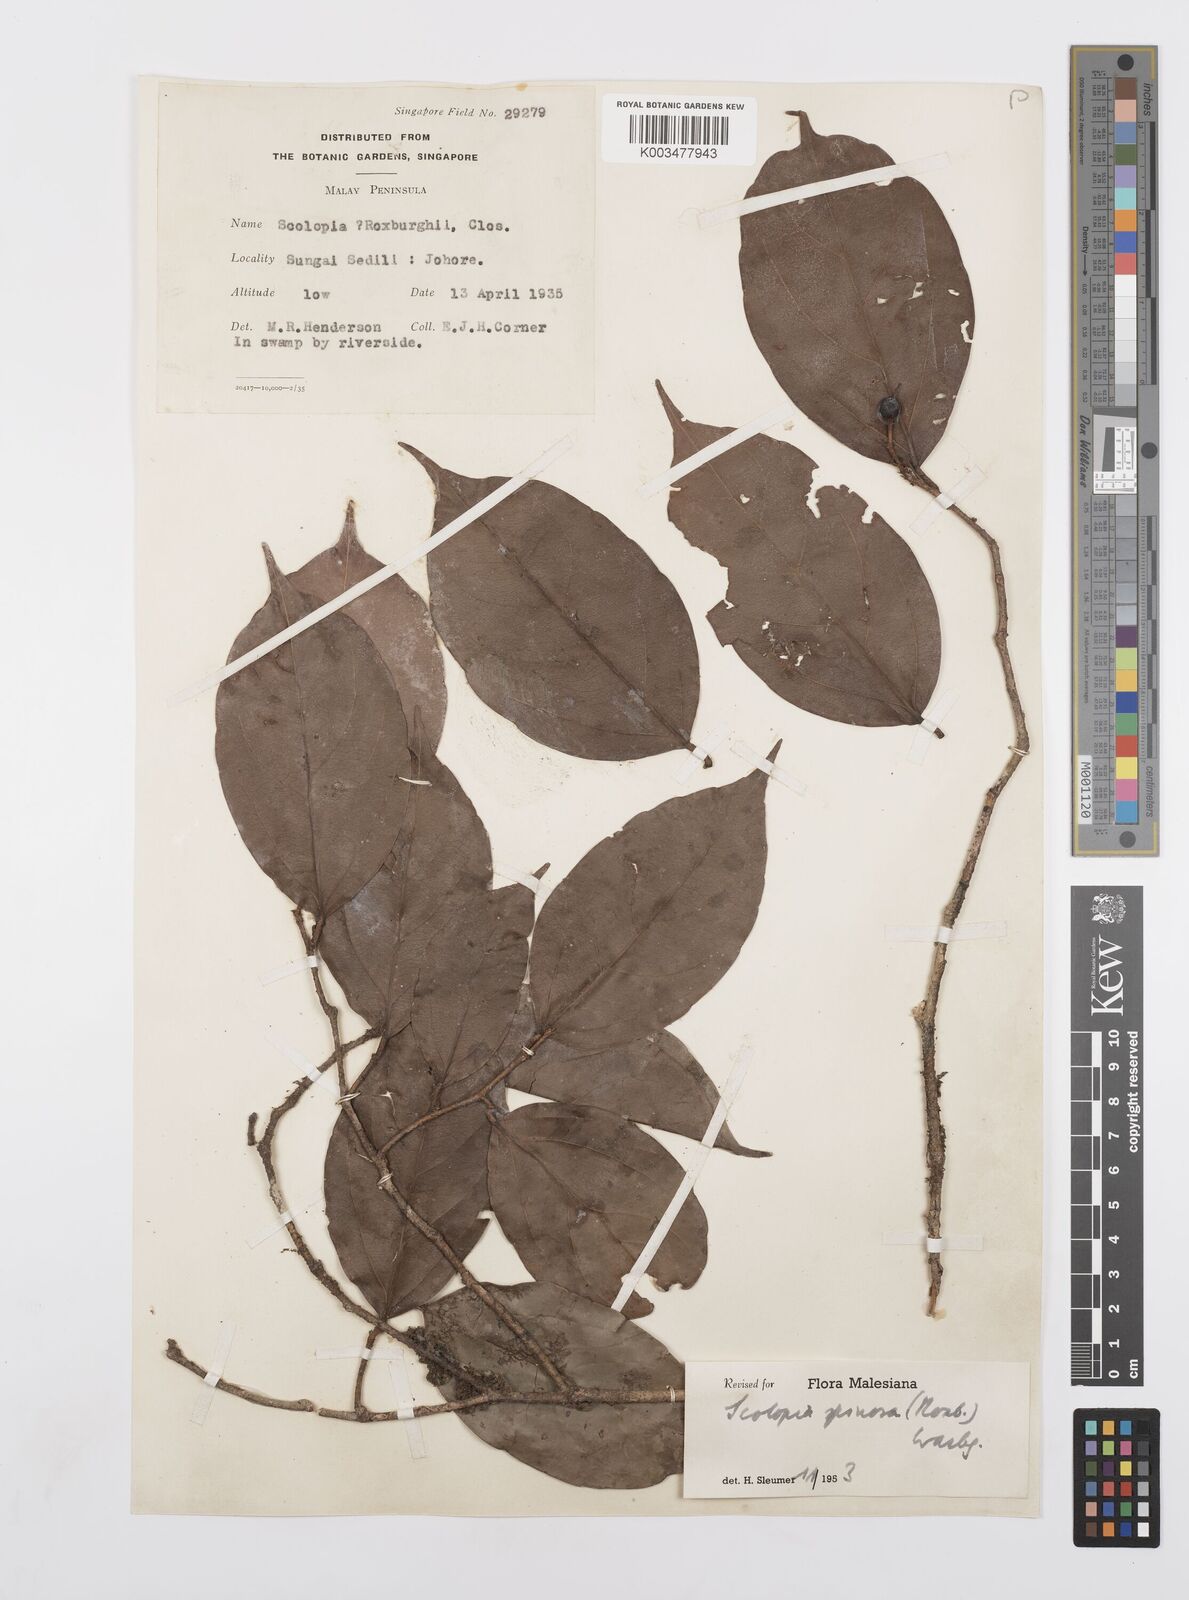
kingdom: Plantae
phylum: Tracheophyta
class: Magnoliopsida
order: Malpighiales
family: Salicaceae
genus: Scolopia
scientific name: Scolopia spinosa
